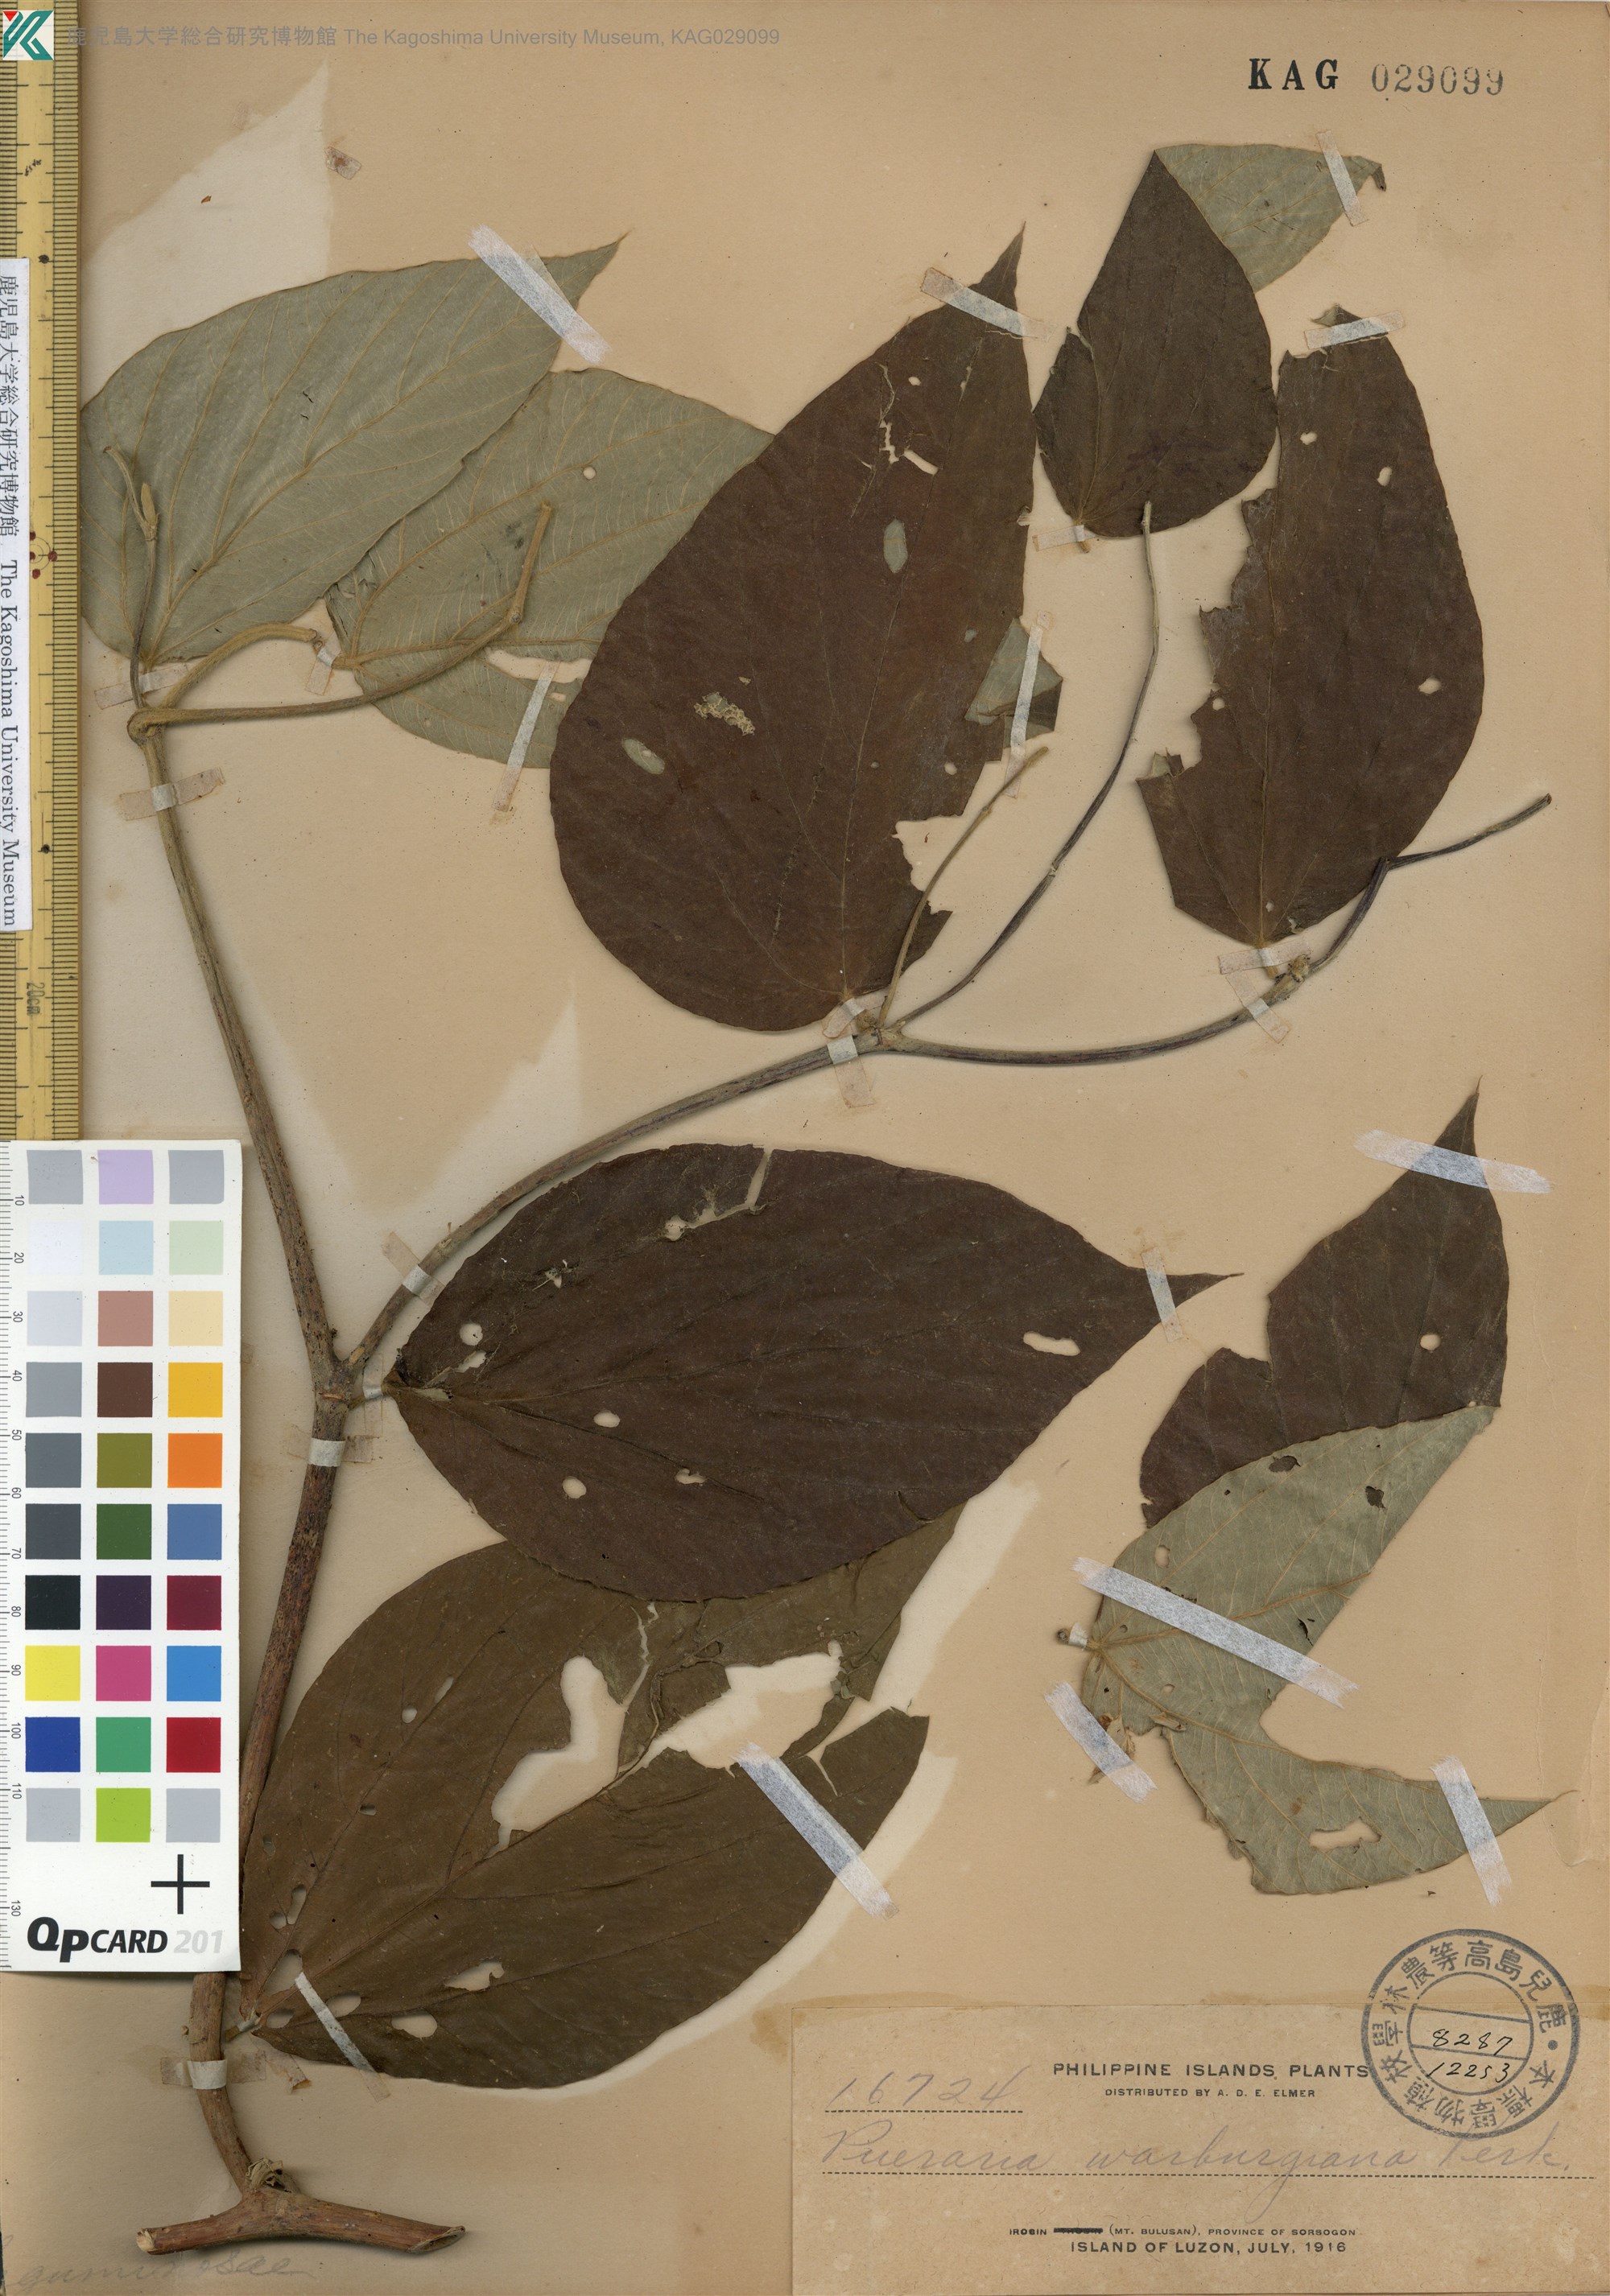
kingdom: Plantae
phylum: Tracheophyta
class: Magnoliopsida
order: Fabales
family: Fabaceae
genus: Pueraria
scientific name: Pueraria pulcherrima
